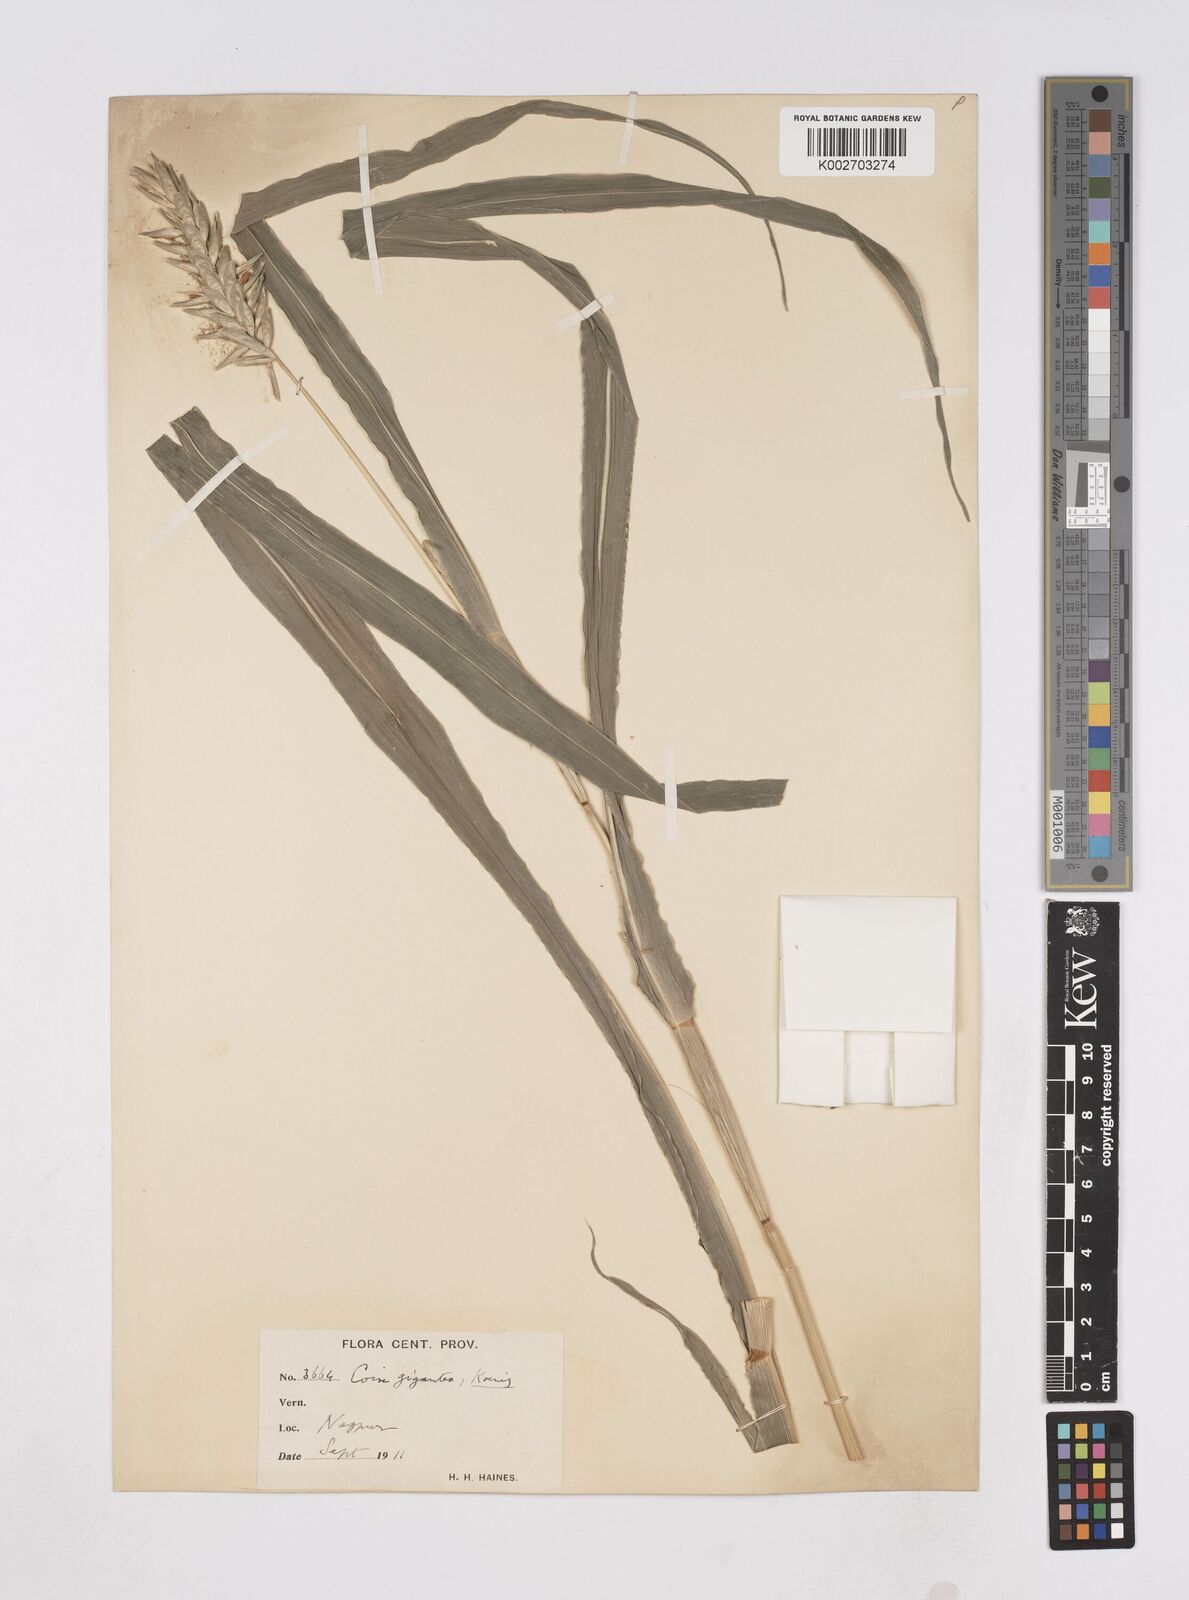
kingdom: Plantae
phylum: Tracheophyta
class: Liliopsida
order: Poales
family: Poaceae
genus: Coix
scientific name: Coix aquatica
